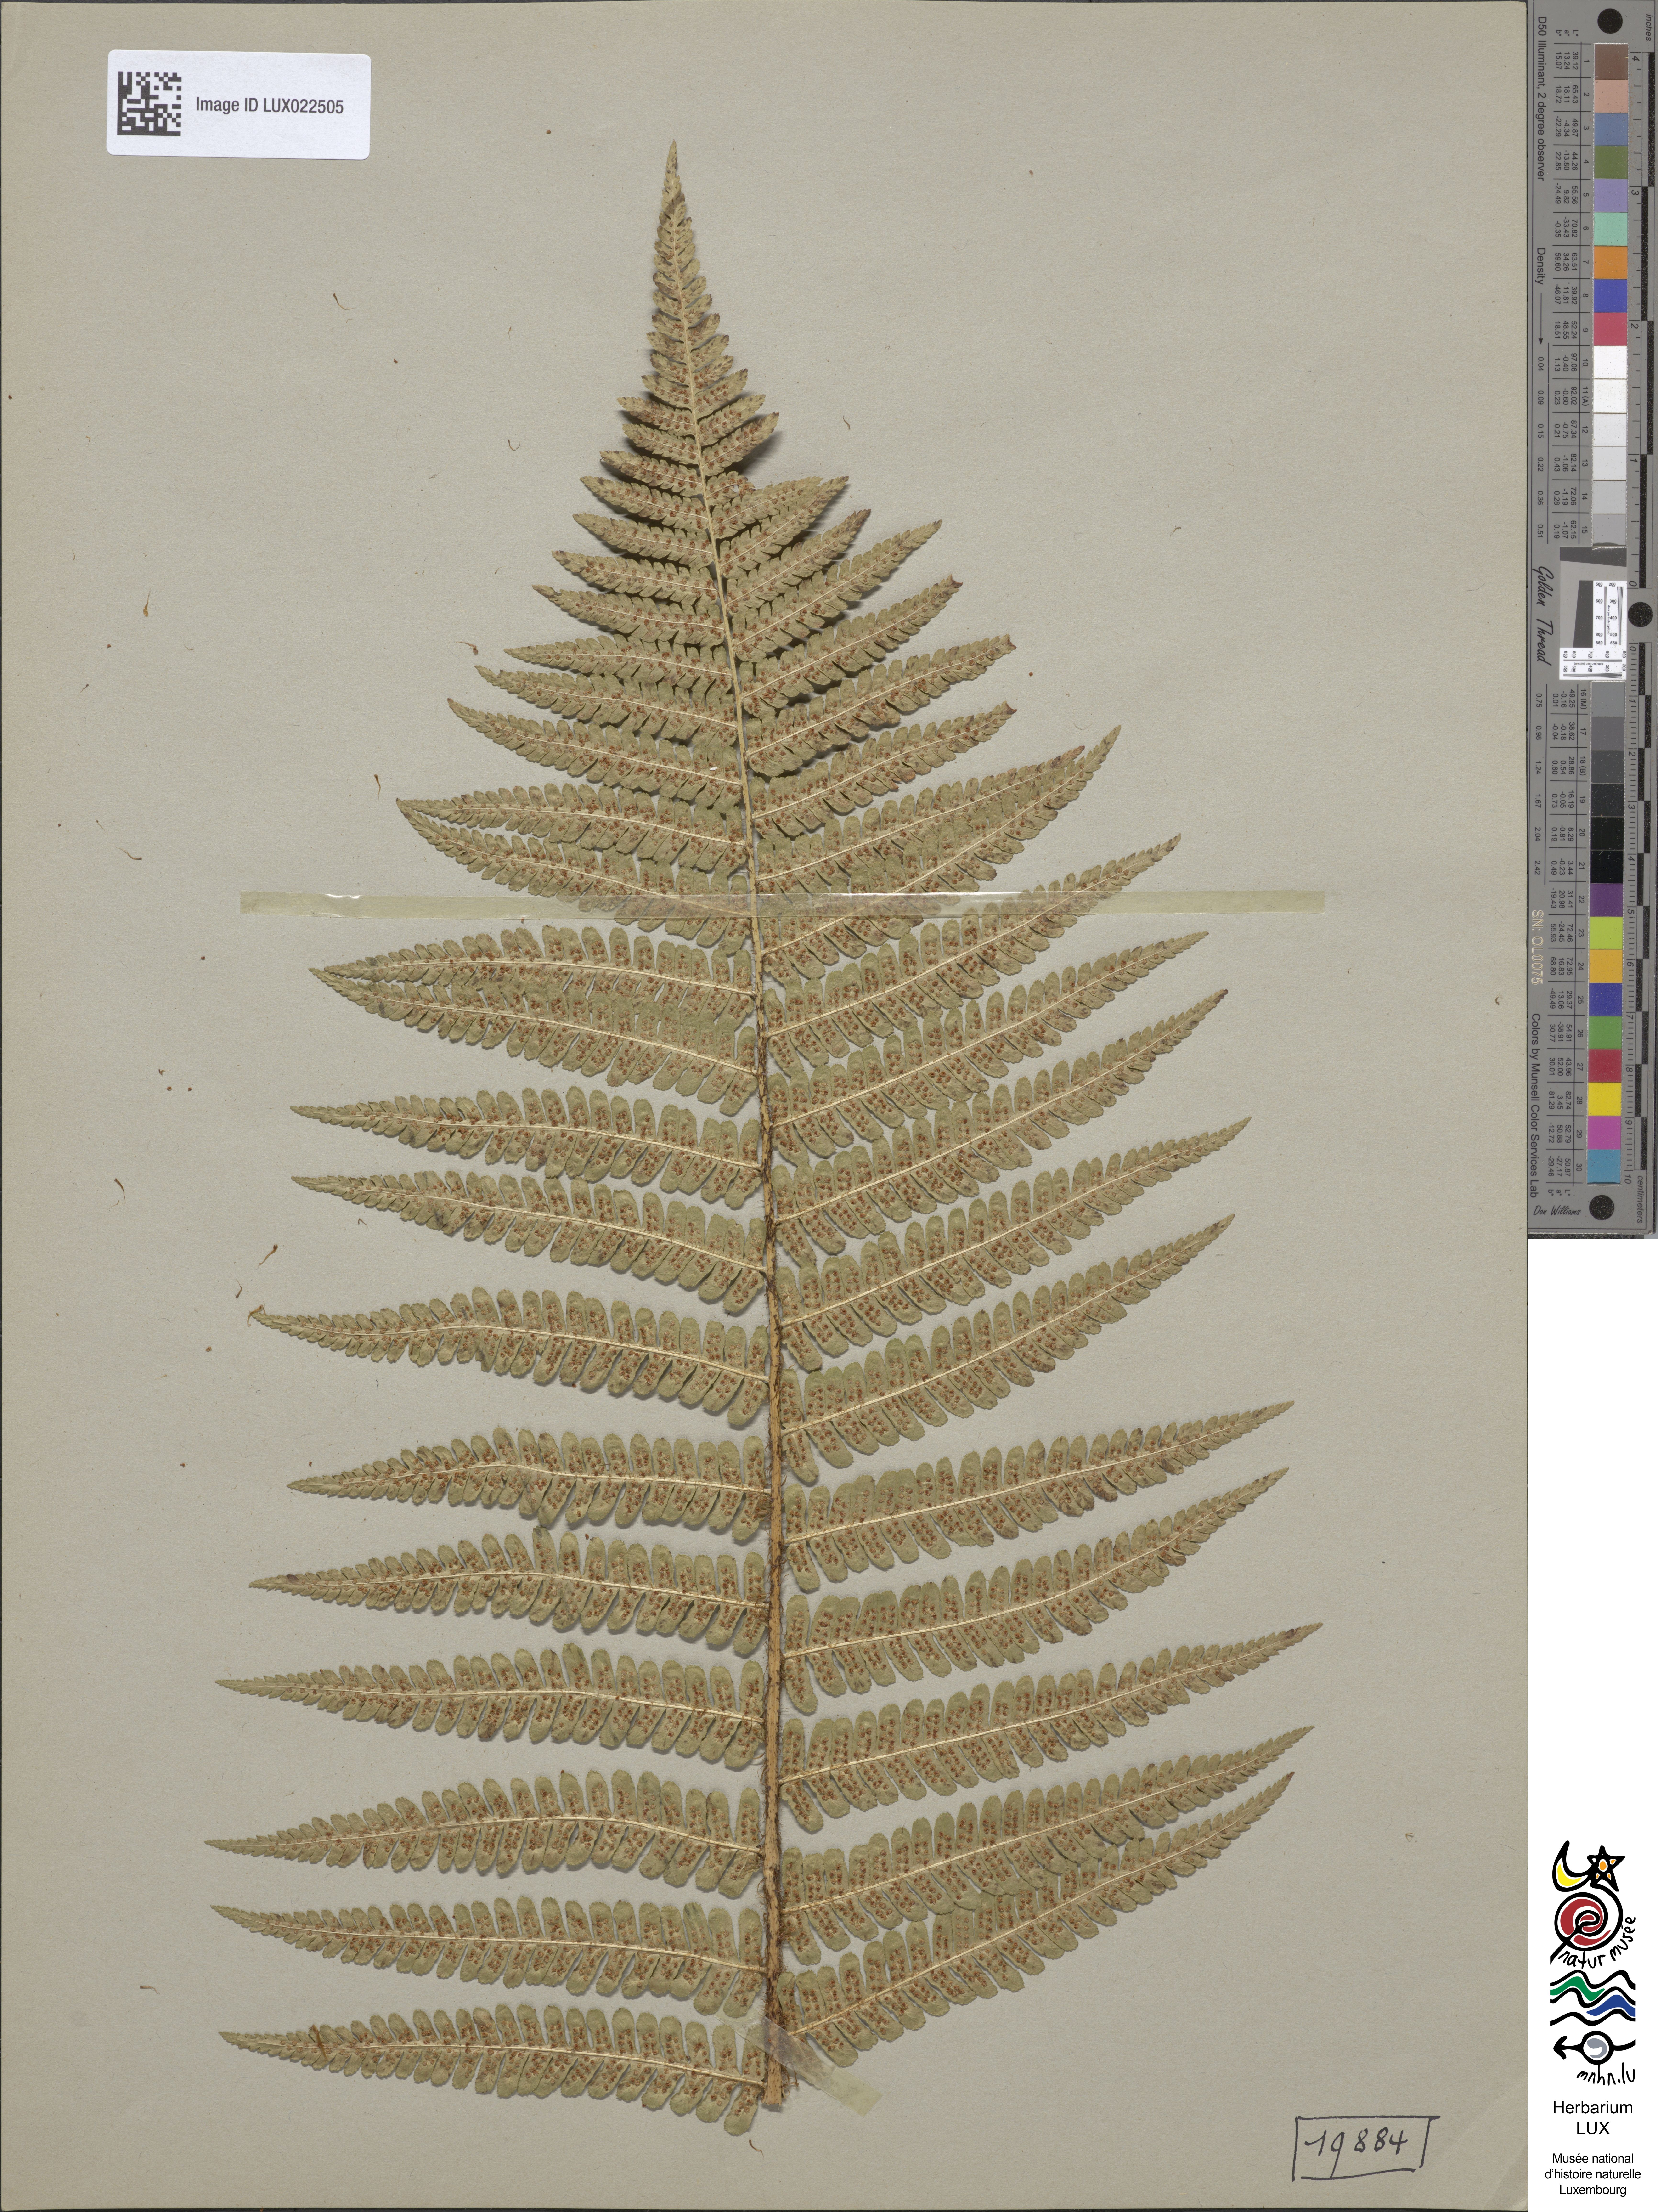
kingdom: Plantae
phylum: Tracheophyta
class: Polypodiopsida
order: Polypodiales
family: Dryopteridaceae
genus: Dryopteris
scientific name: Dryopteris borreri
